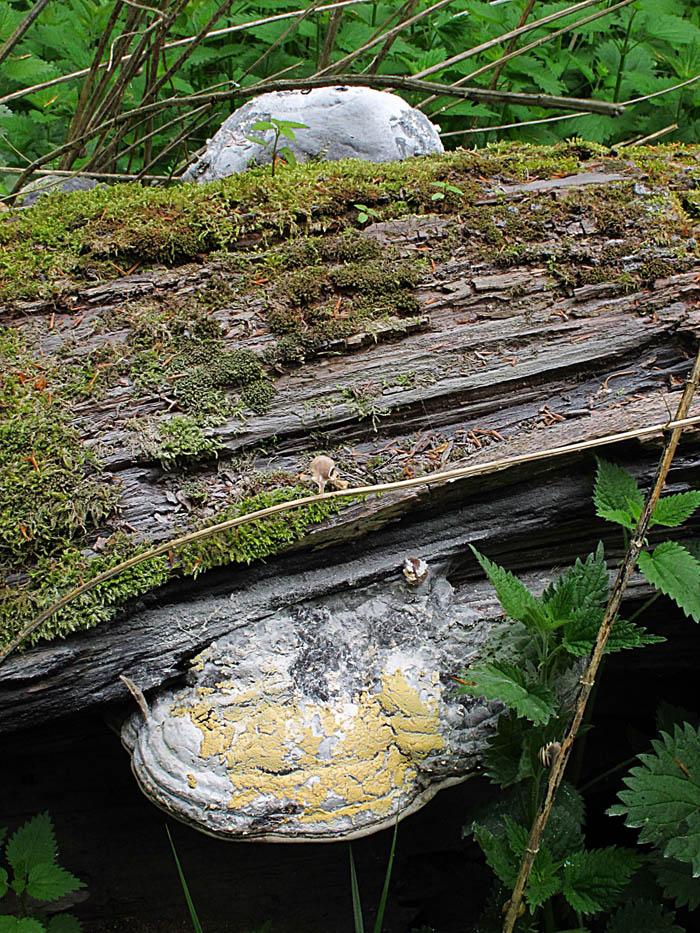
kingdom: Fungi
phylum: Basidiomycota
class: Agaricomycetes
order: Polyporales
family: Polyporaceae
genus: Fomes
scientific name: Fomes fomentarius
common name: tøndersvamp
